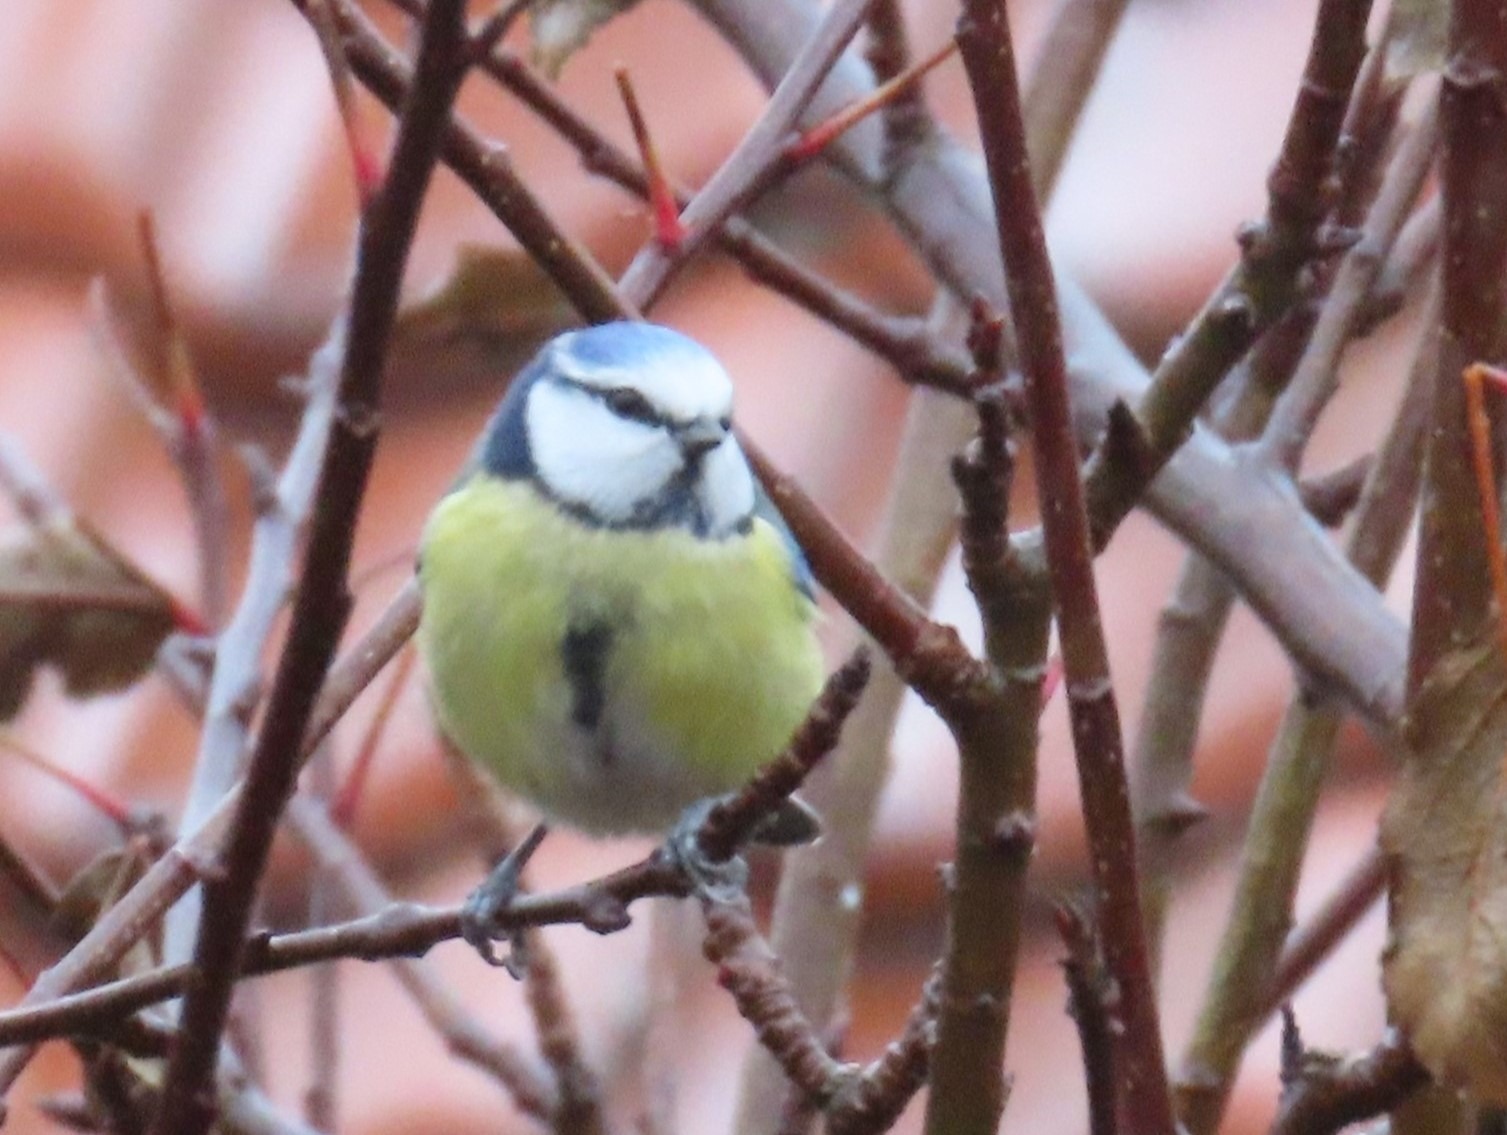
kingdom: Animalia
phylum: Chordata
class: Aves
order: Passeriformes
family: Paridae
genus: Cyanistes
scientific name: Cyanistes caeruleus
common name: Blåmejse
